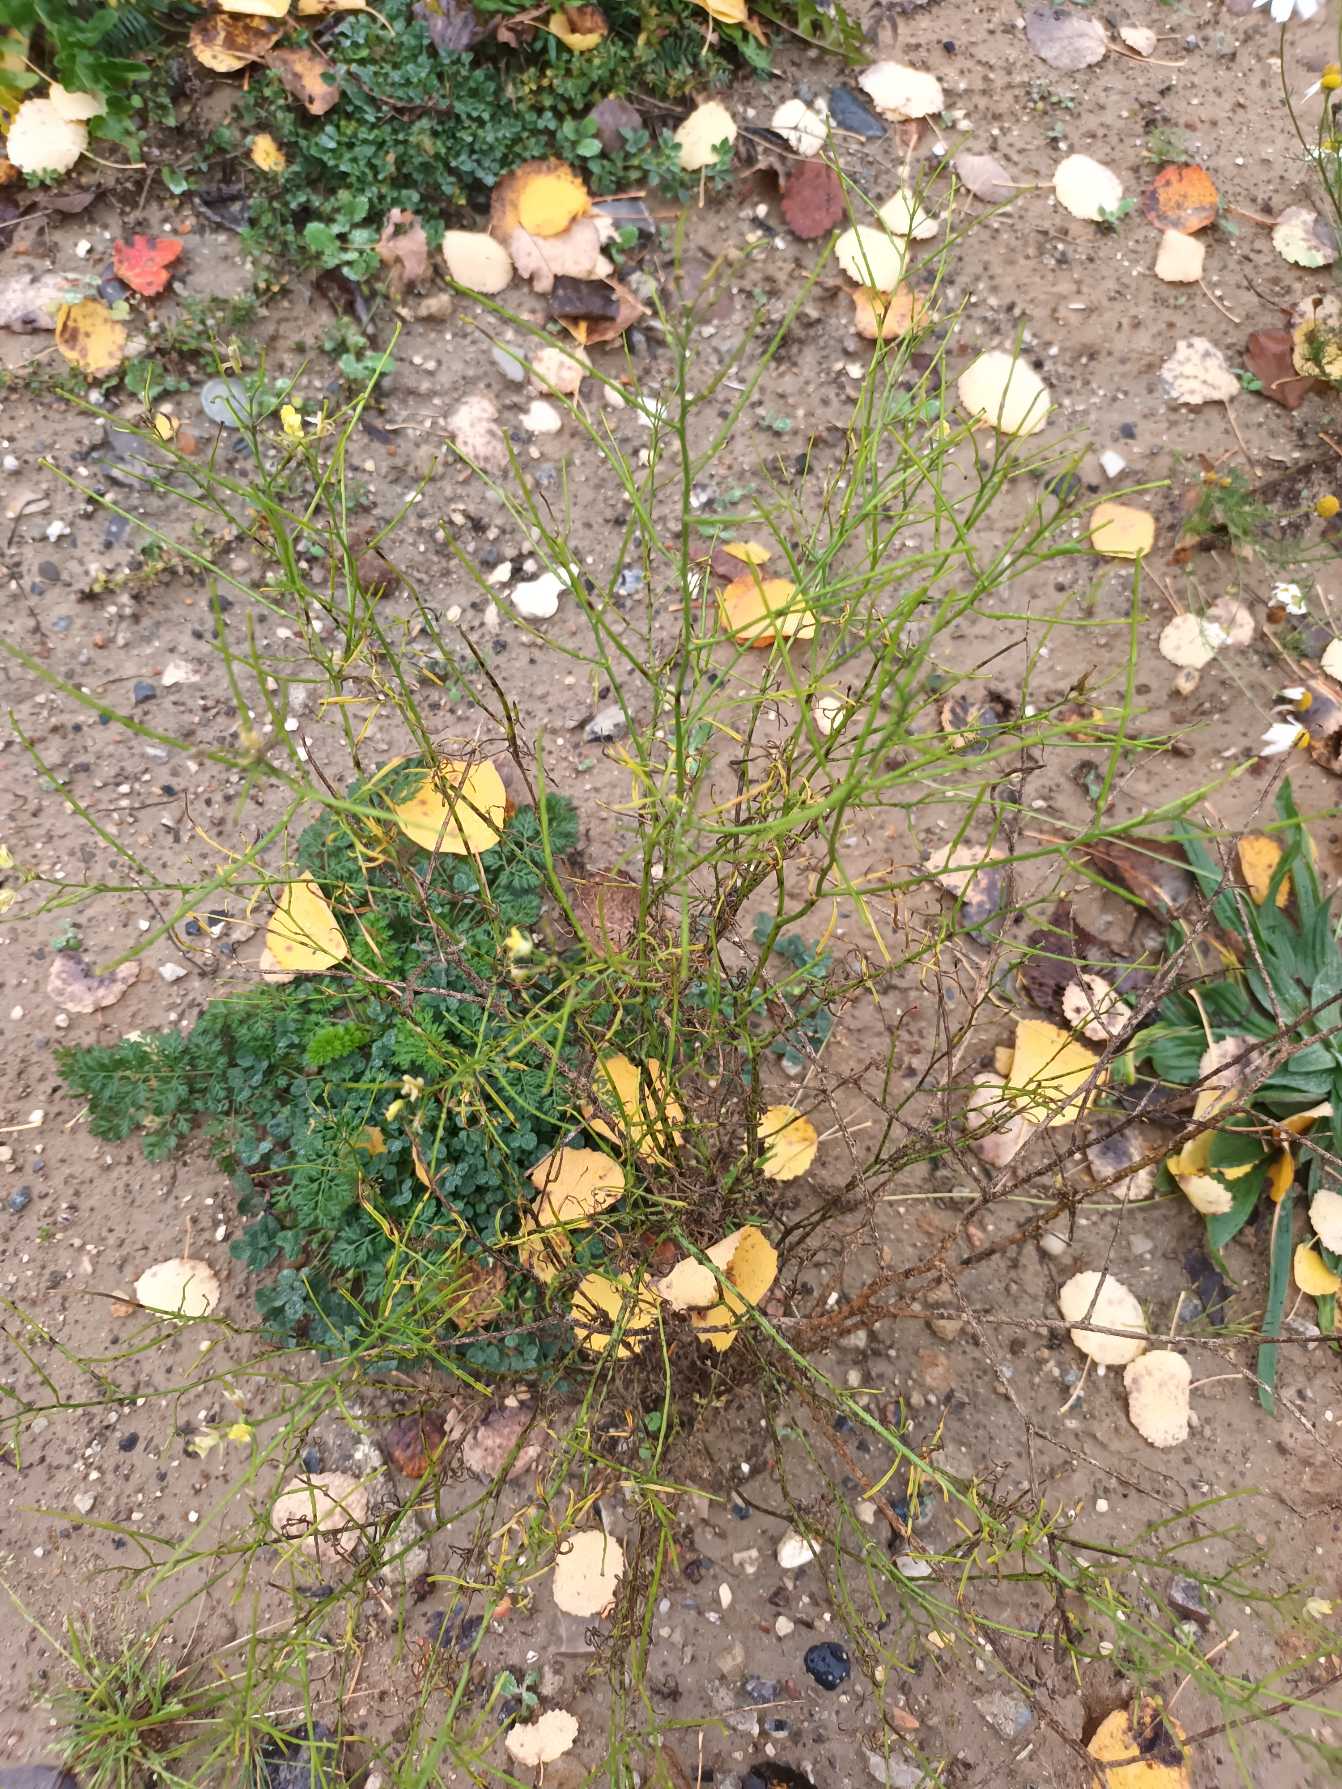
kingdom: Plantae
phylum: Tracheophyta
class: Magnoliopsida
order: Brassicales
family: Brassicaceae
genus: Sisymbrium
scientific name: Sisymbrium altissimum
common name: Ungarsk vejsennep
